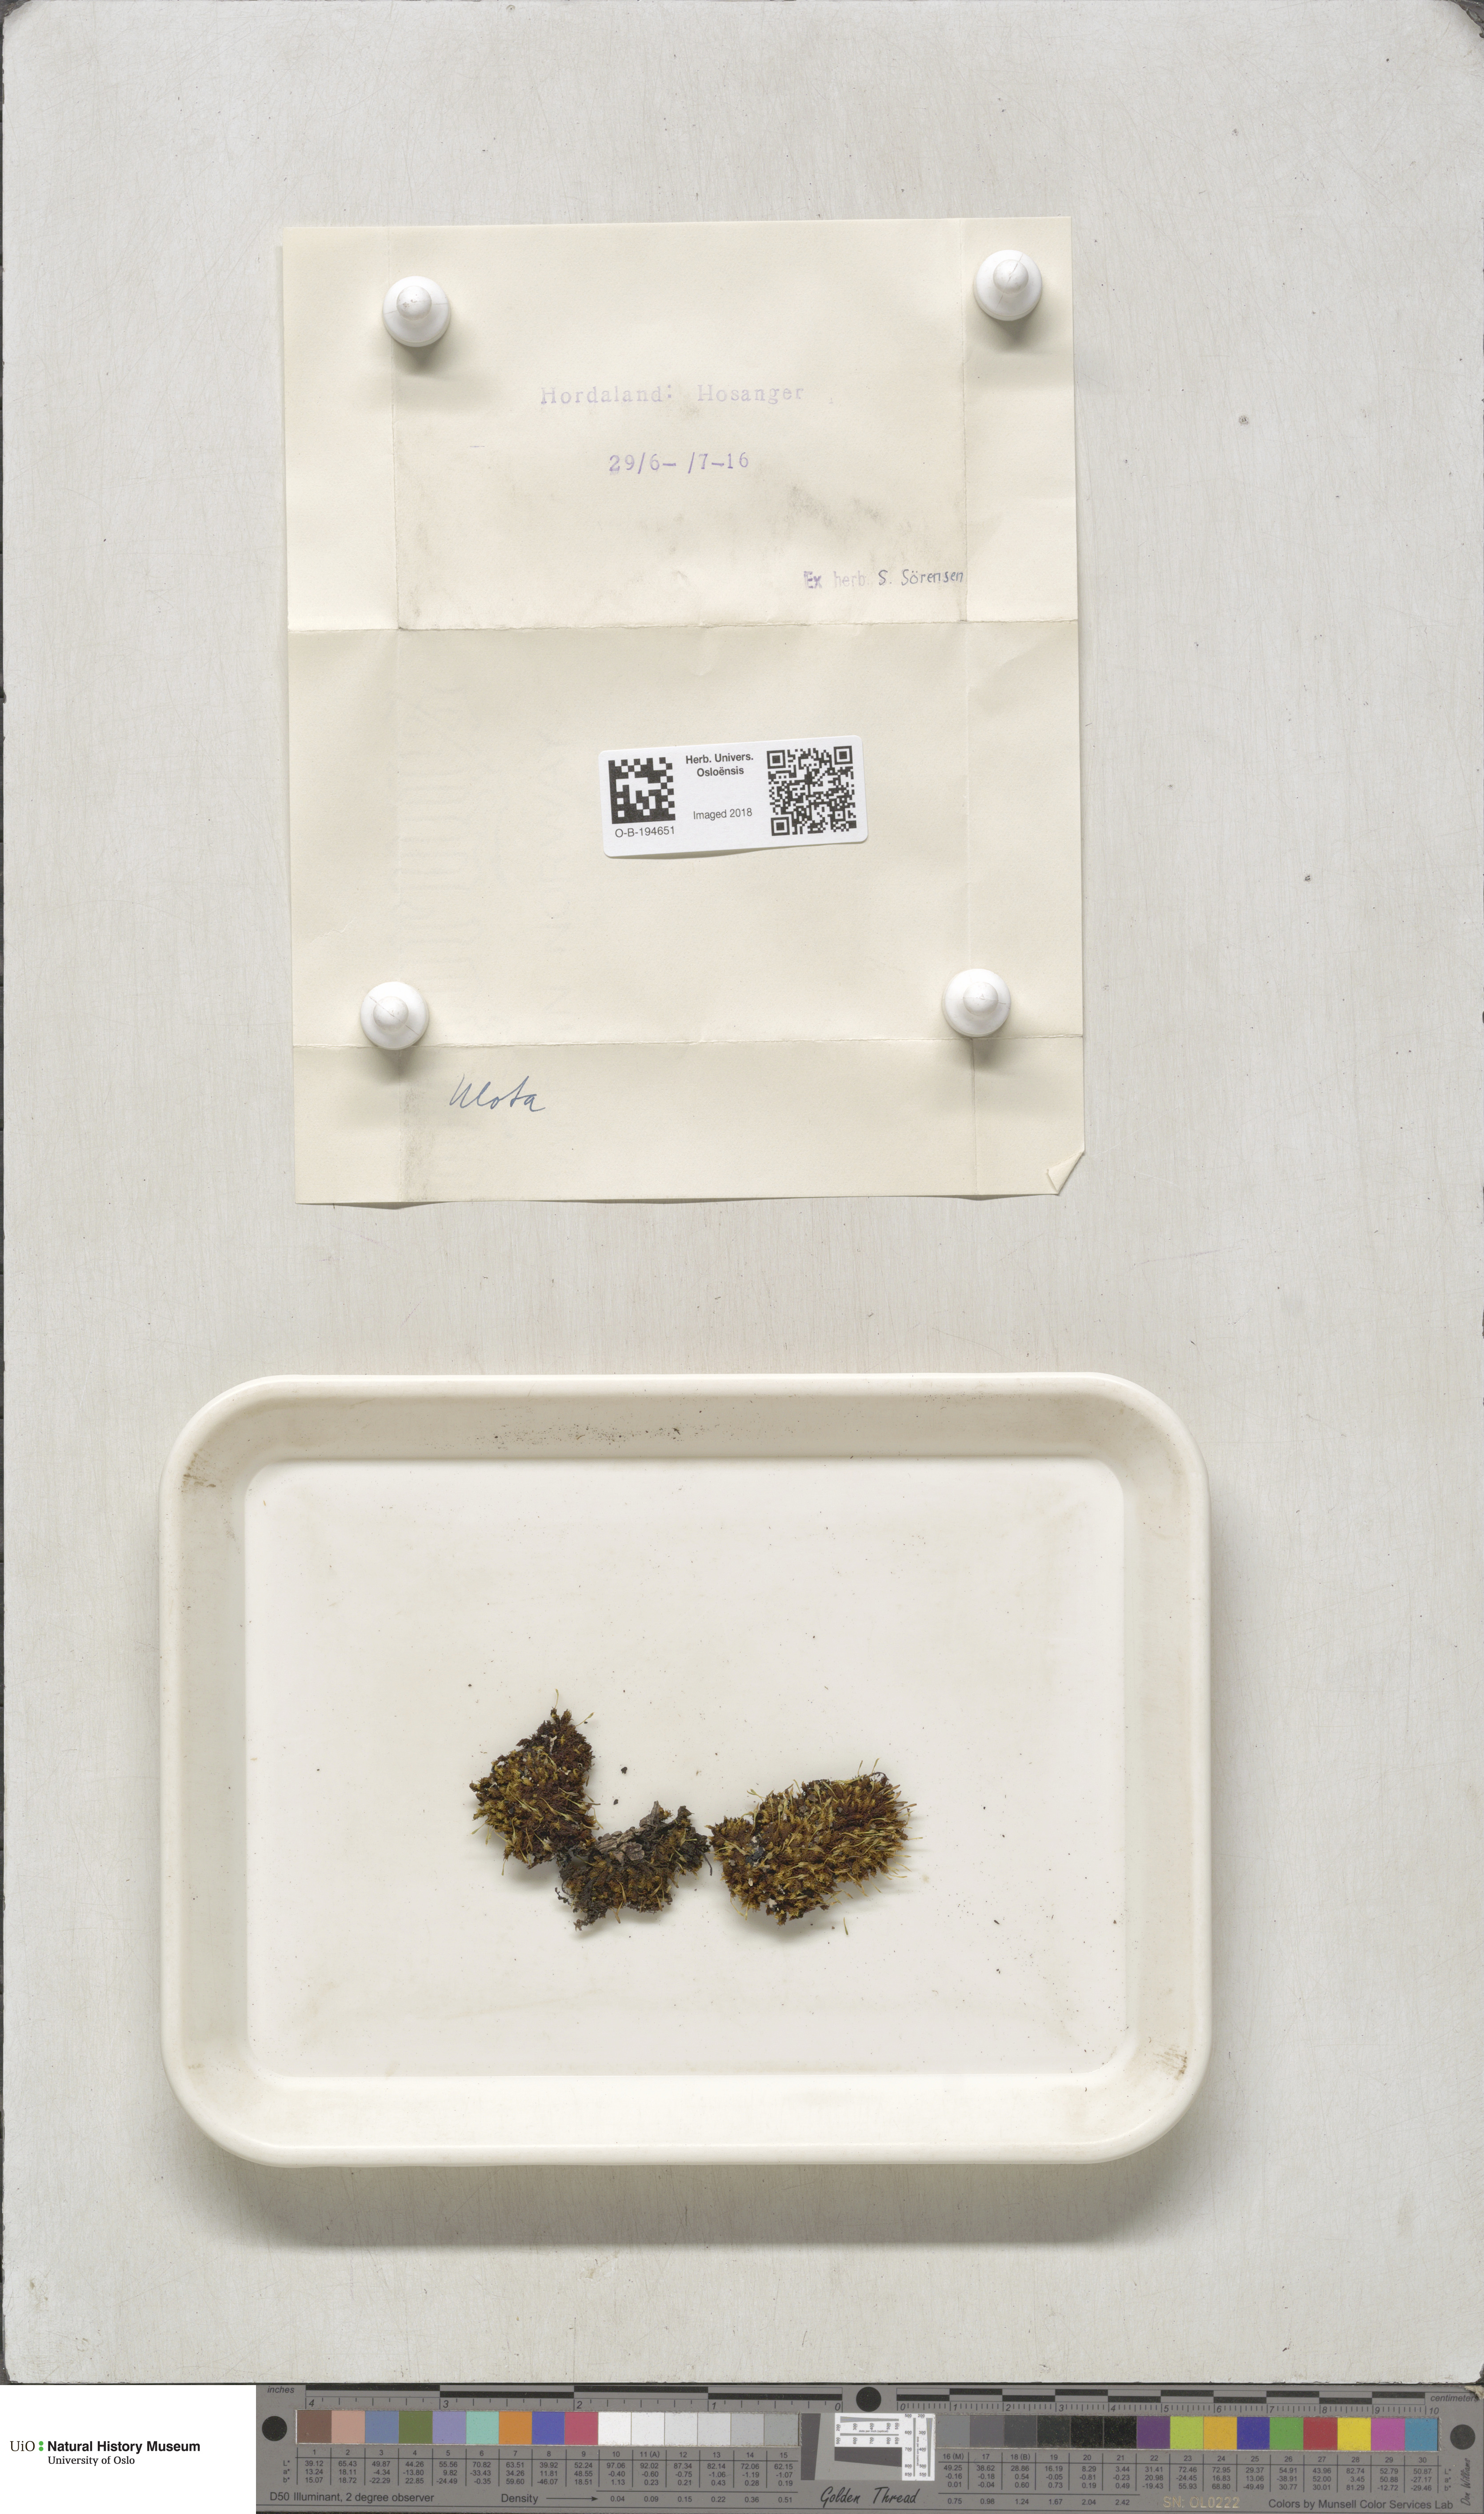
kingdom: Plantae
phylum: Bryophyta
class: Bryopsida
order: Orthotrichales
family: Orthotrichaceae
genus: Ulota
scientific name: Ulota
